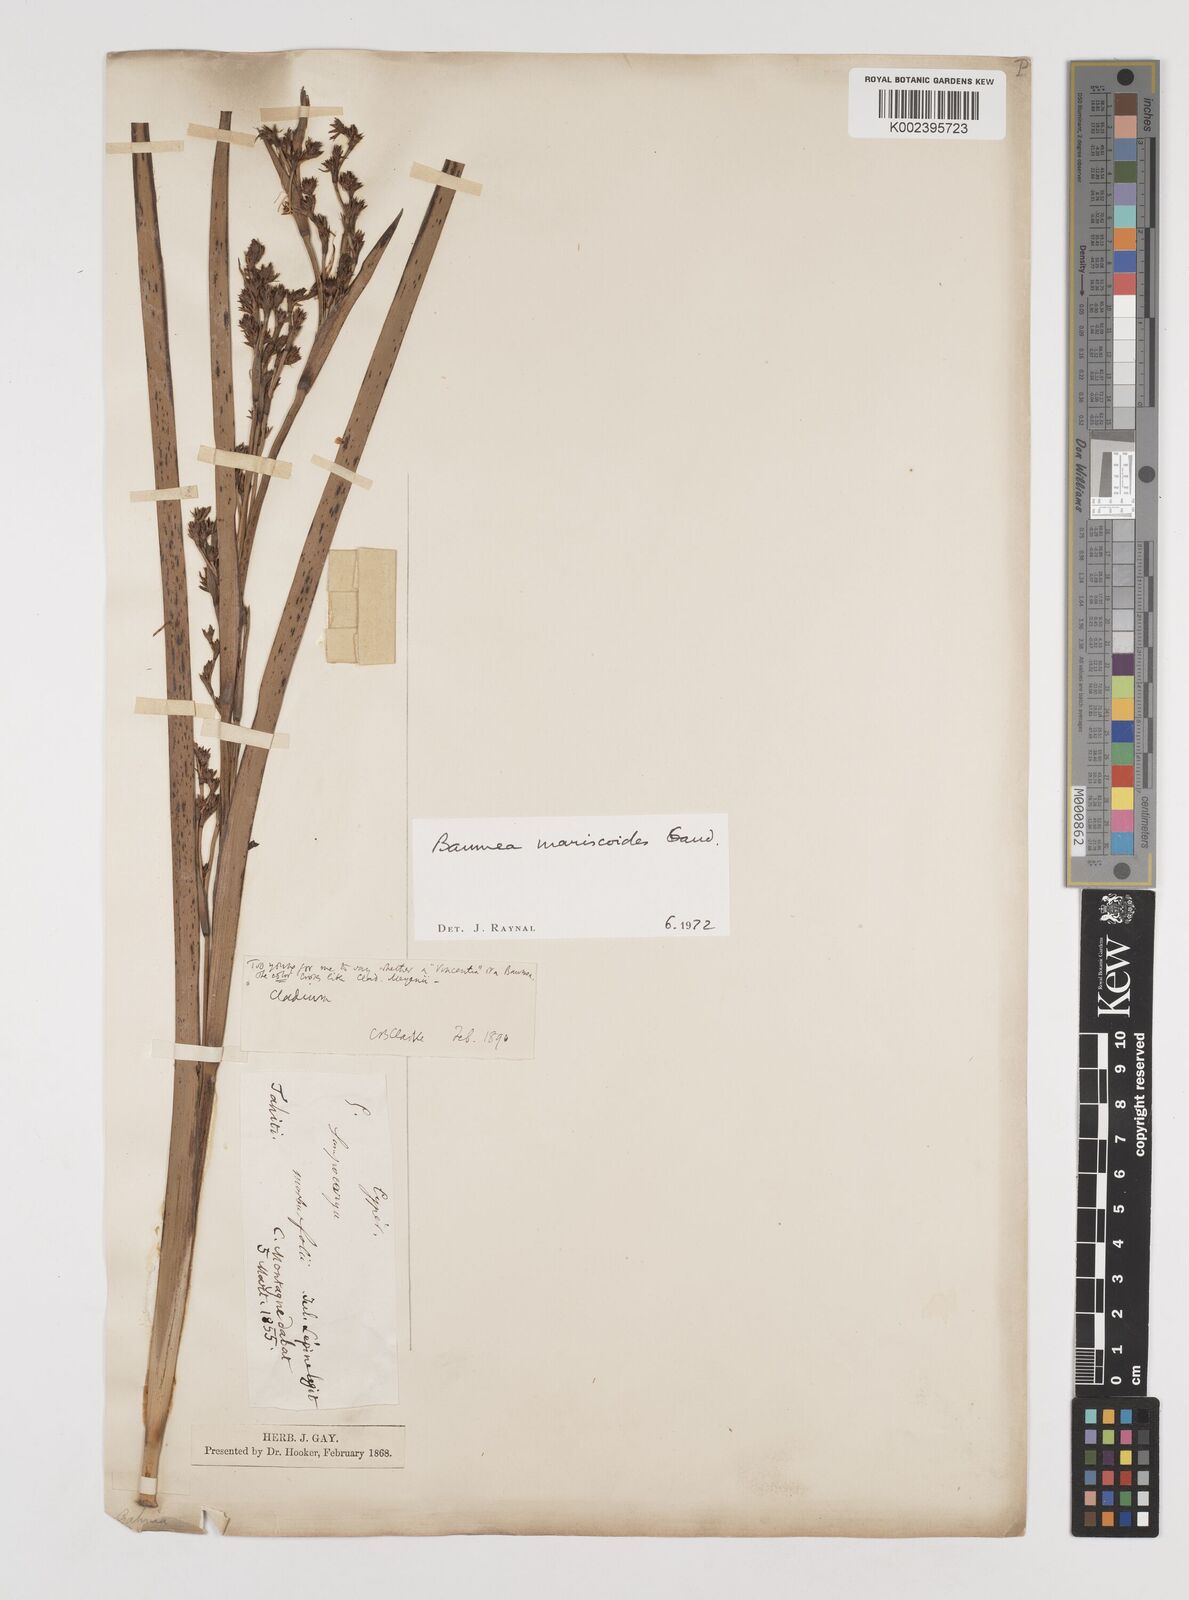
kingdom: Plantae
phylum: Tracheophyta
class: Liliopsida
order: Poales
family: Cyperaceae
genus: Machaerina
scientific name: Machaerina mariscoides
